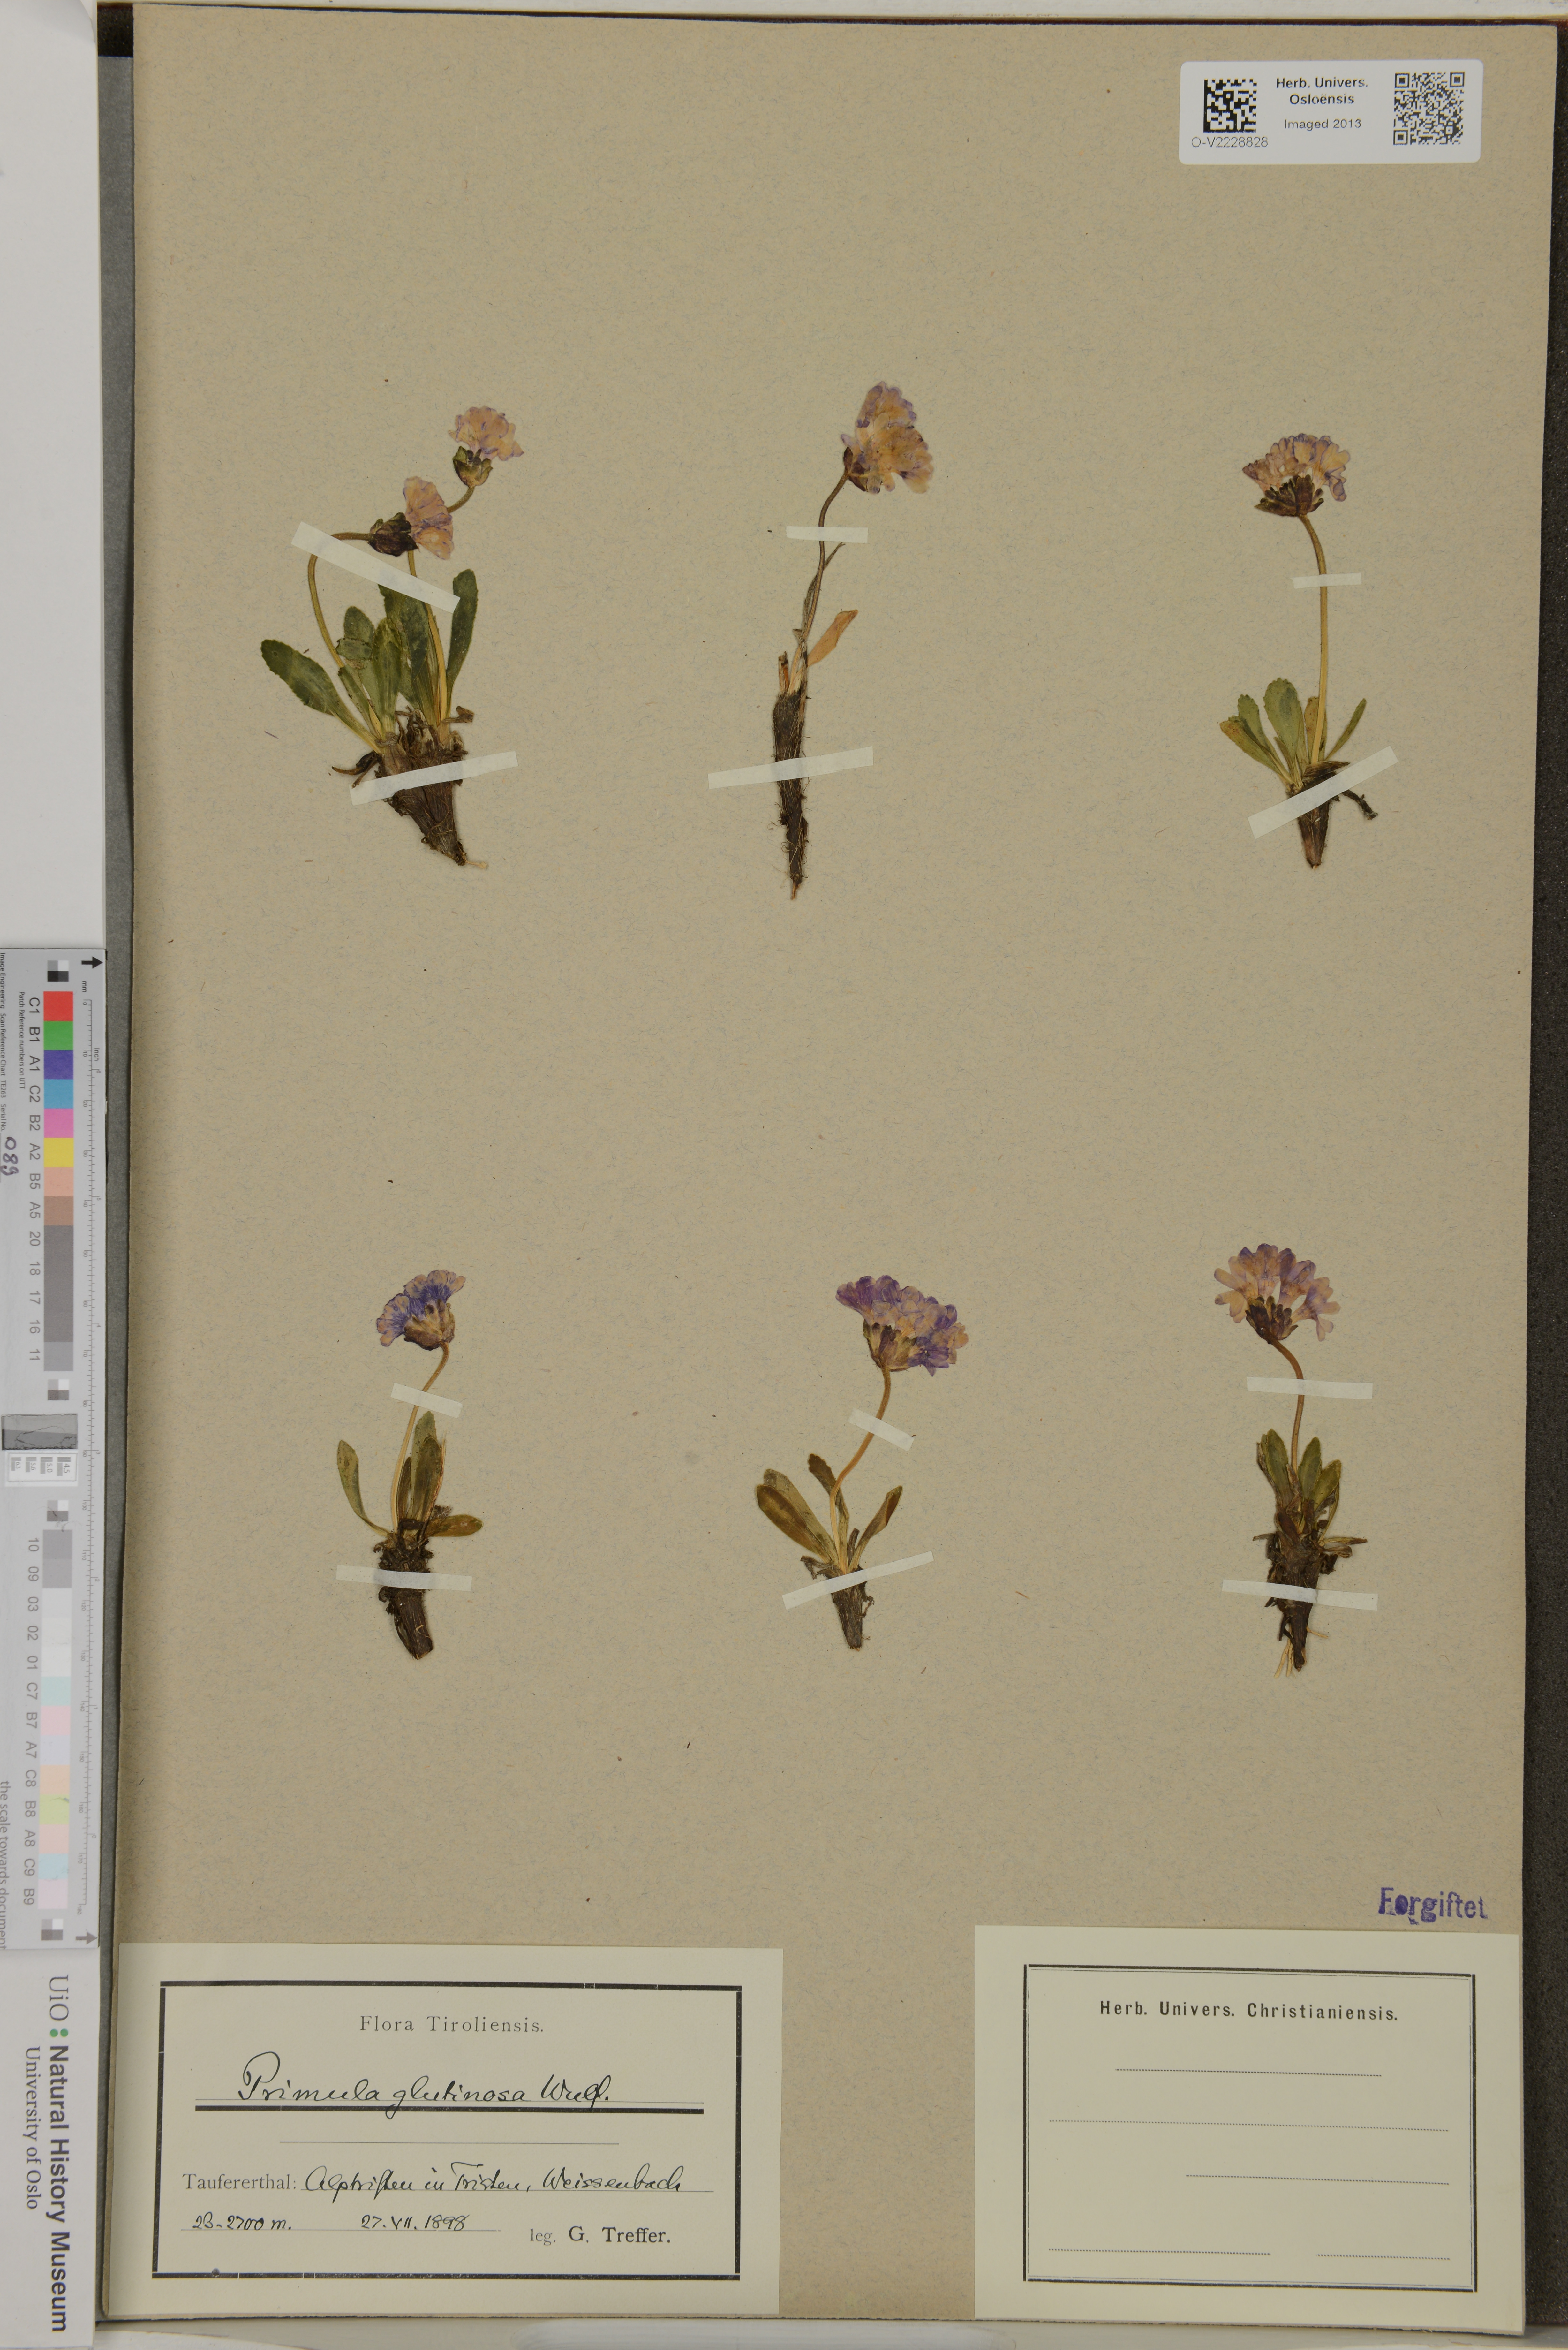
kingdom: Plantae
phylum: Tracheophyta
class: Magnoliopsida
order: Ericales
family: Primulaceae
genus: Primula
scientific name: Primula glutinosa
